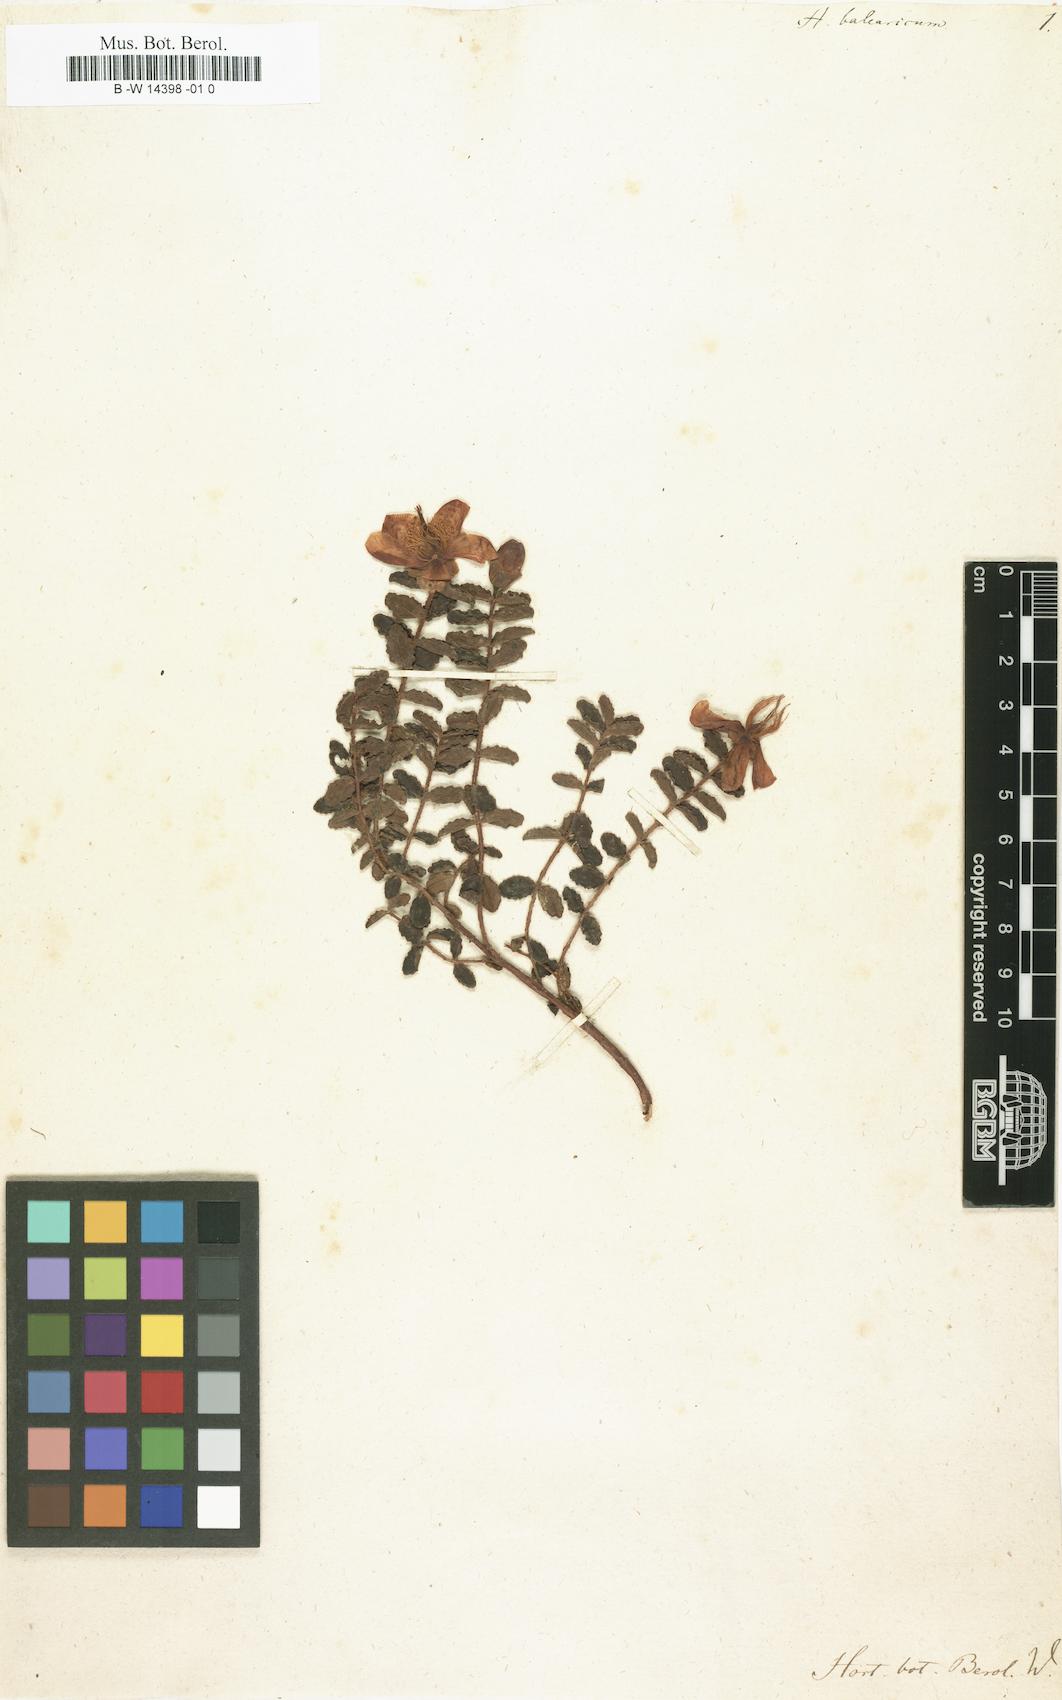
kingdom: Plantae
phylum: Tracheophyta
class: Magnoliopsida
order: Malpighiales
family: Hypericaceae
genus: Hypericum
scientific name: Hypericum balearicum
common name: Majorca st john's wort
